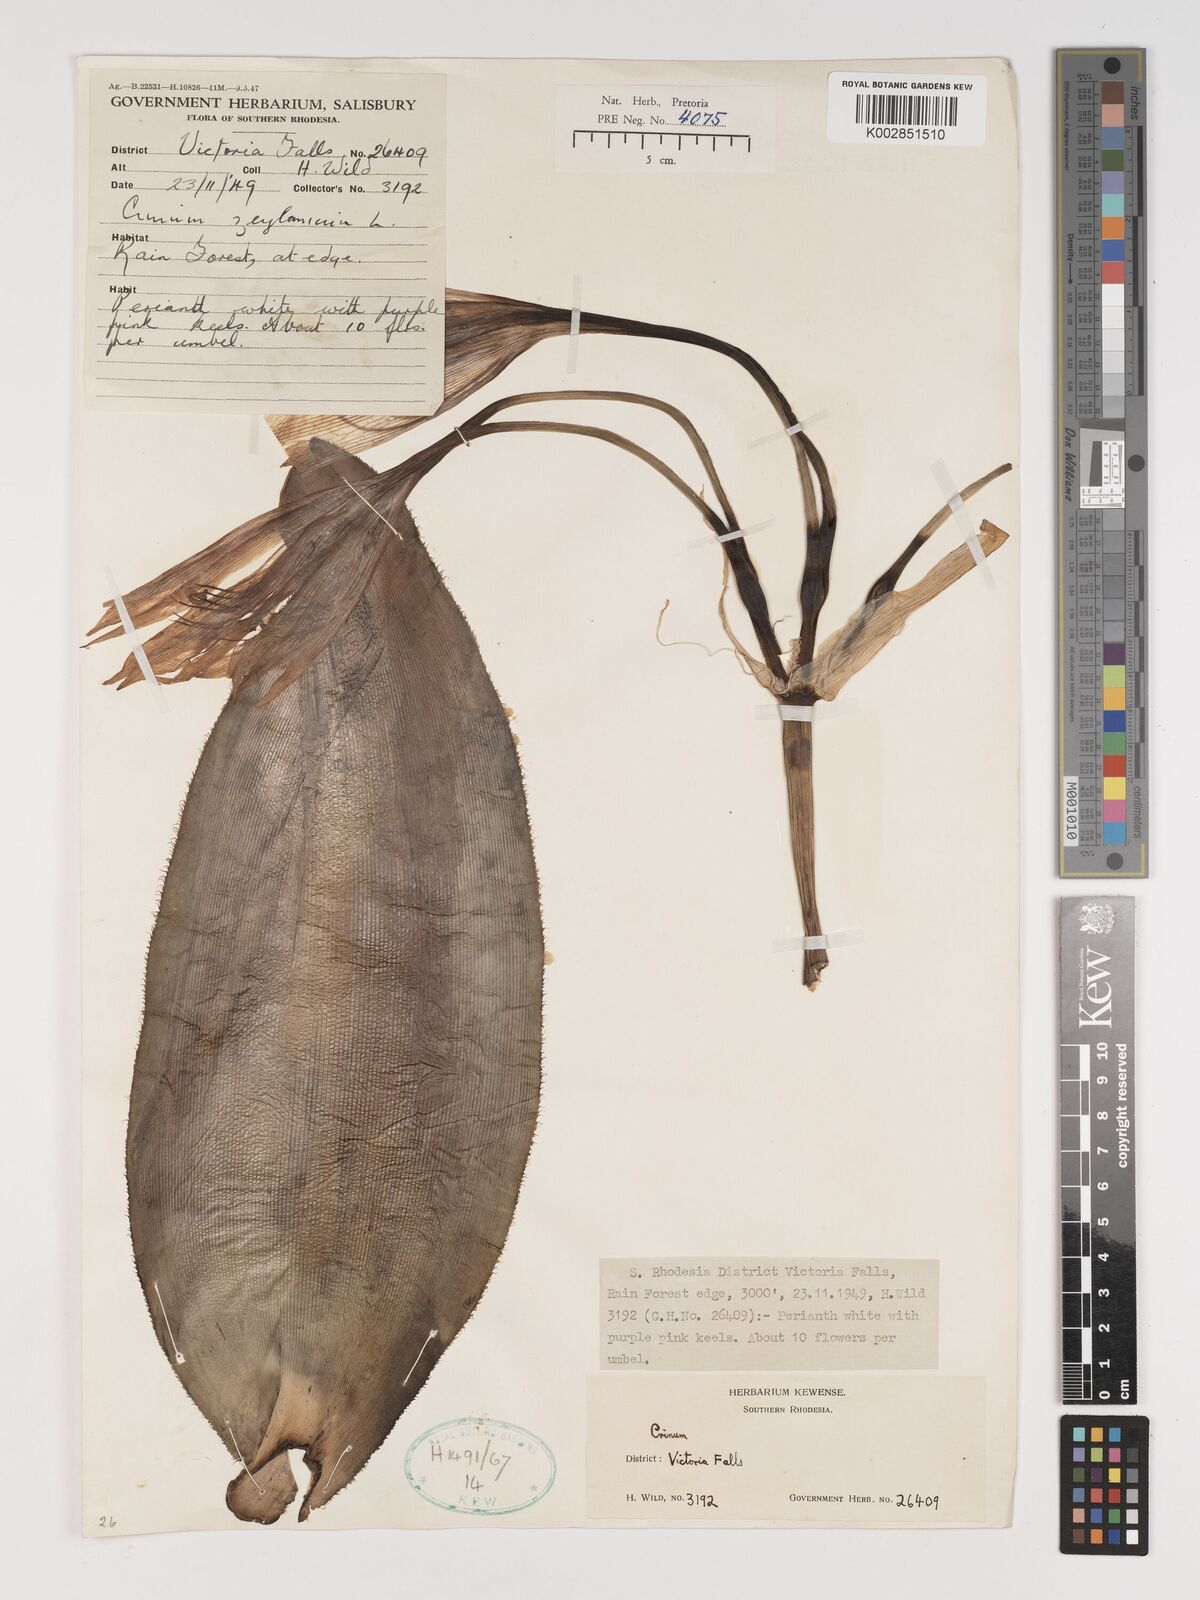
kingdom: Plantae
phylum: Tracheophyta
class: Liliopsida
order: Asparagales
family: Amaryllidaceae
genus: Crinum
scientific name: Crinum
